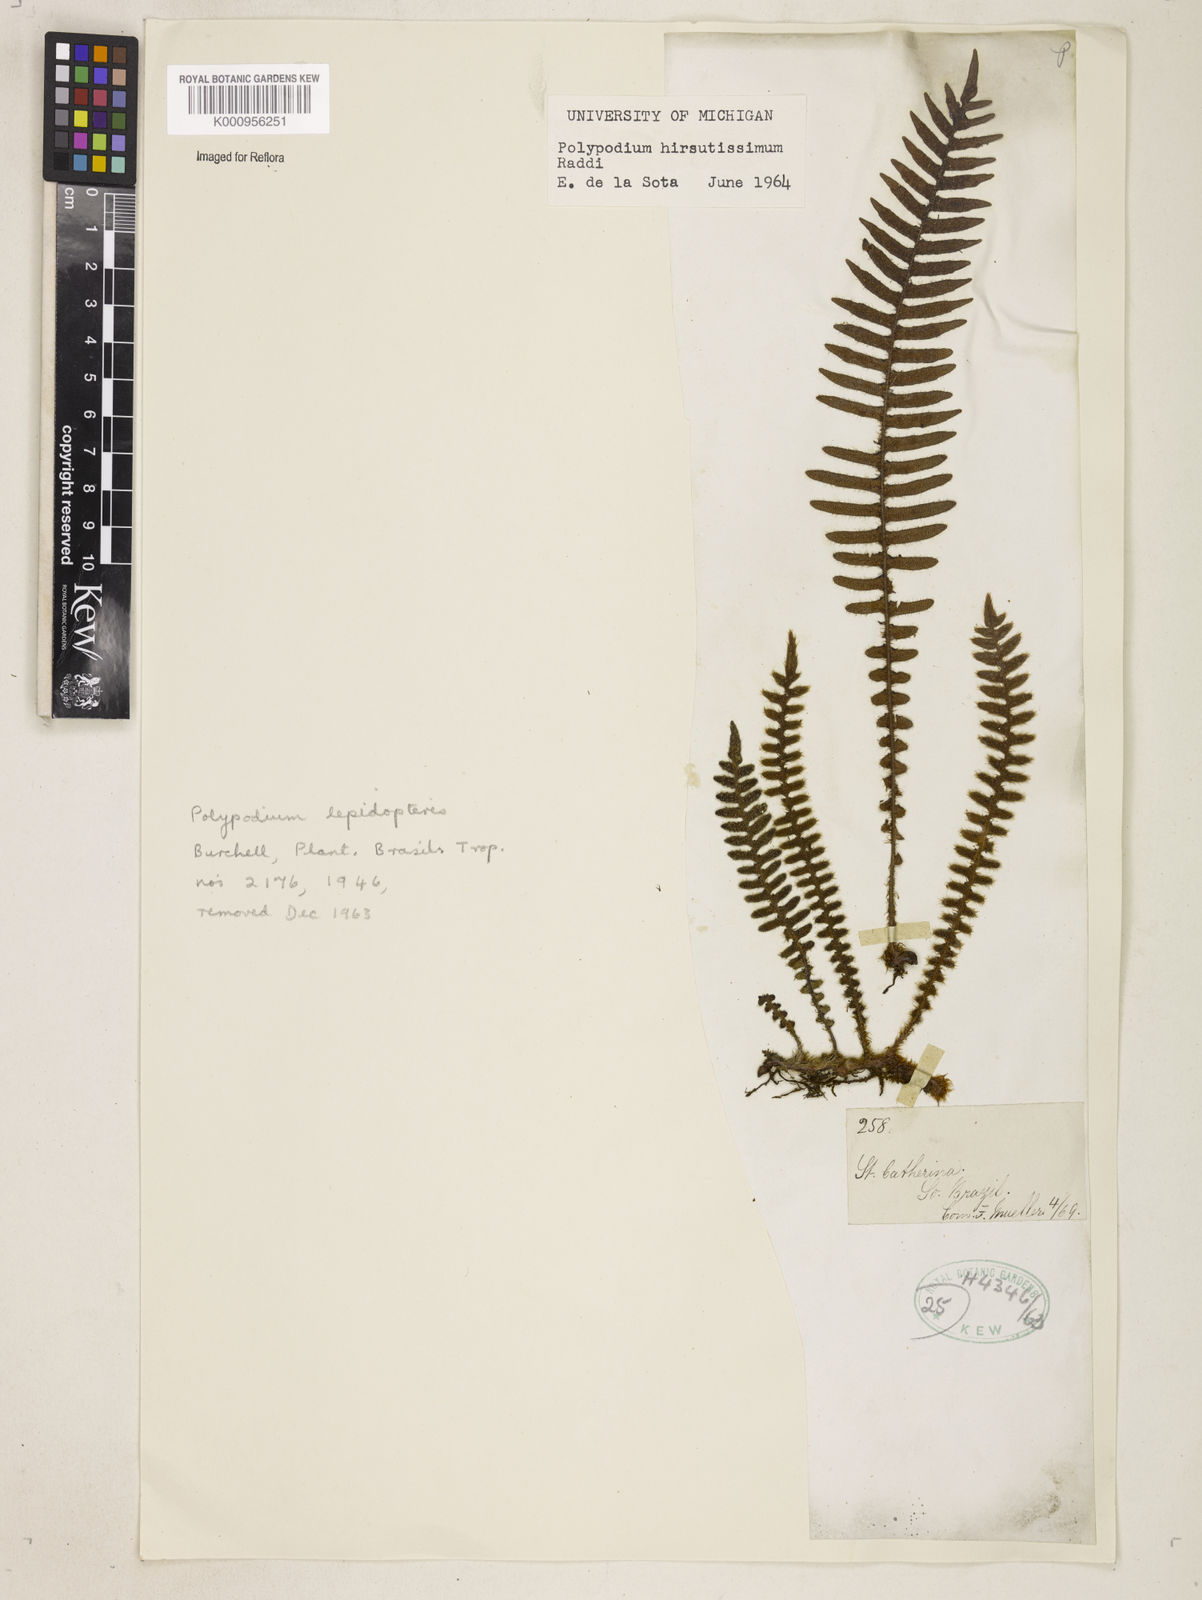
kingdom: Plantae
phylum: Tracheophyta
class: Polypodiopsida
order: Polypodiales
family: Polypodiaceae
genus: Pleopeltis
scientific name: Pleopeltis hirsutissima
